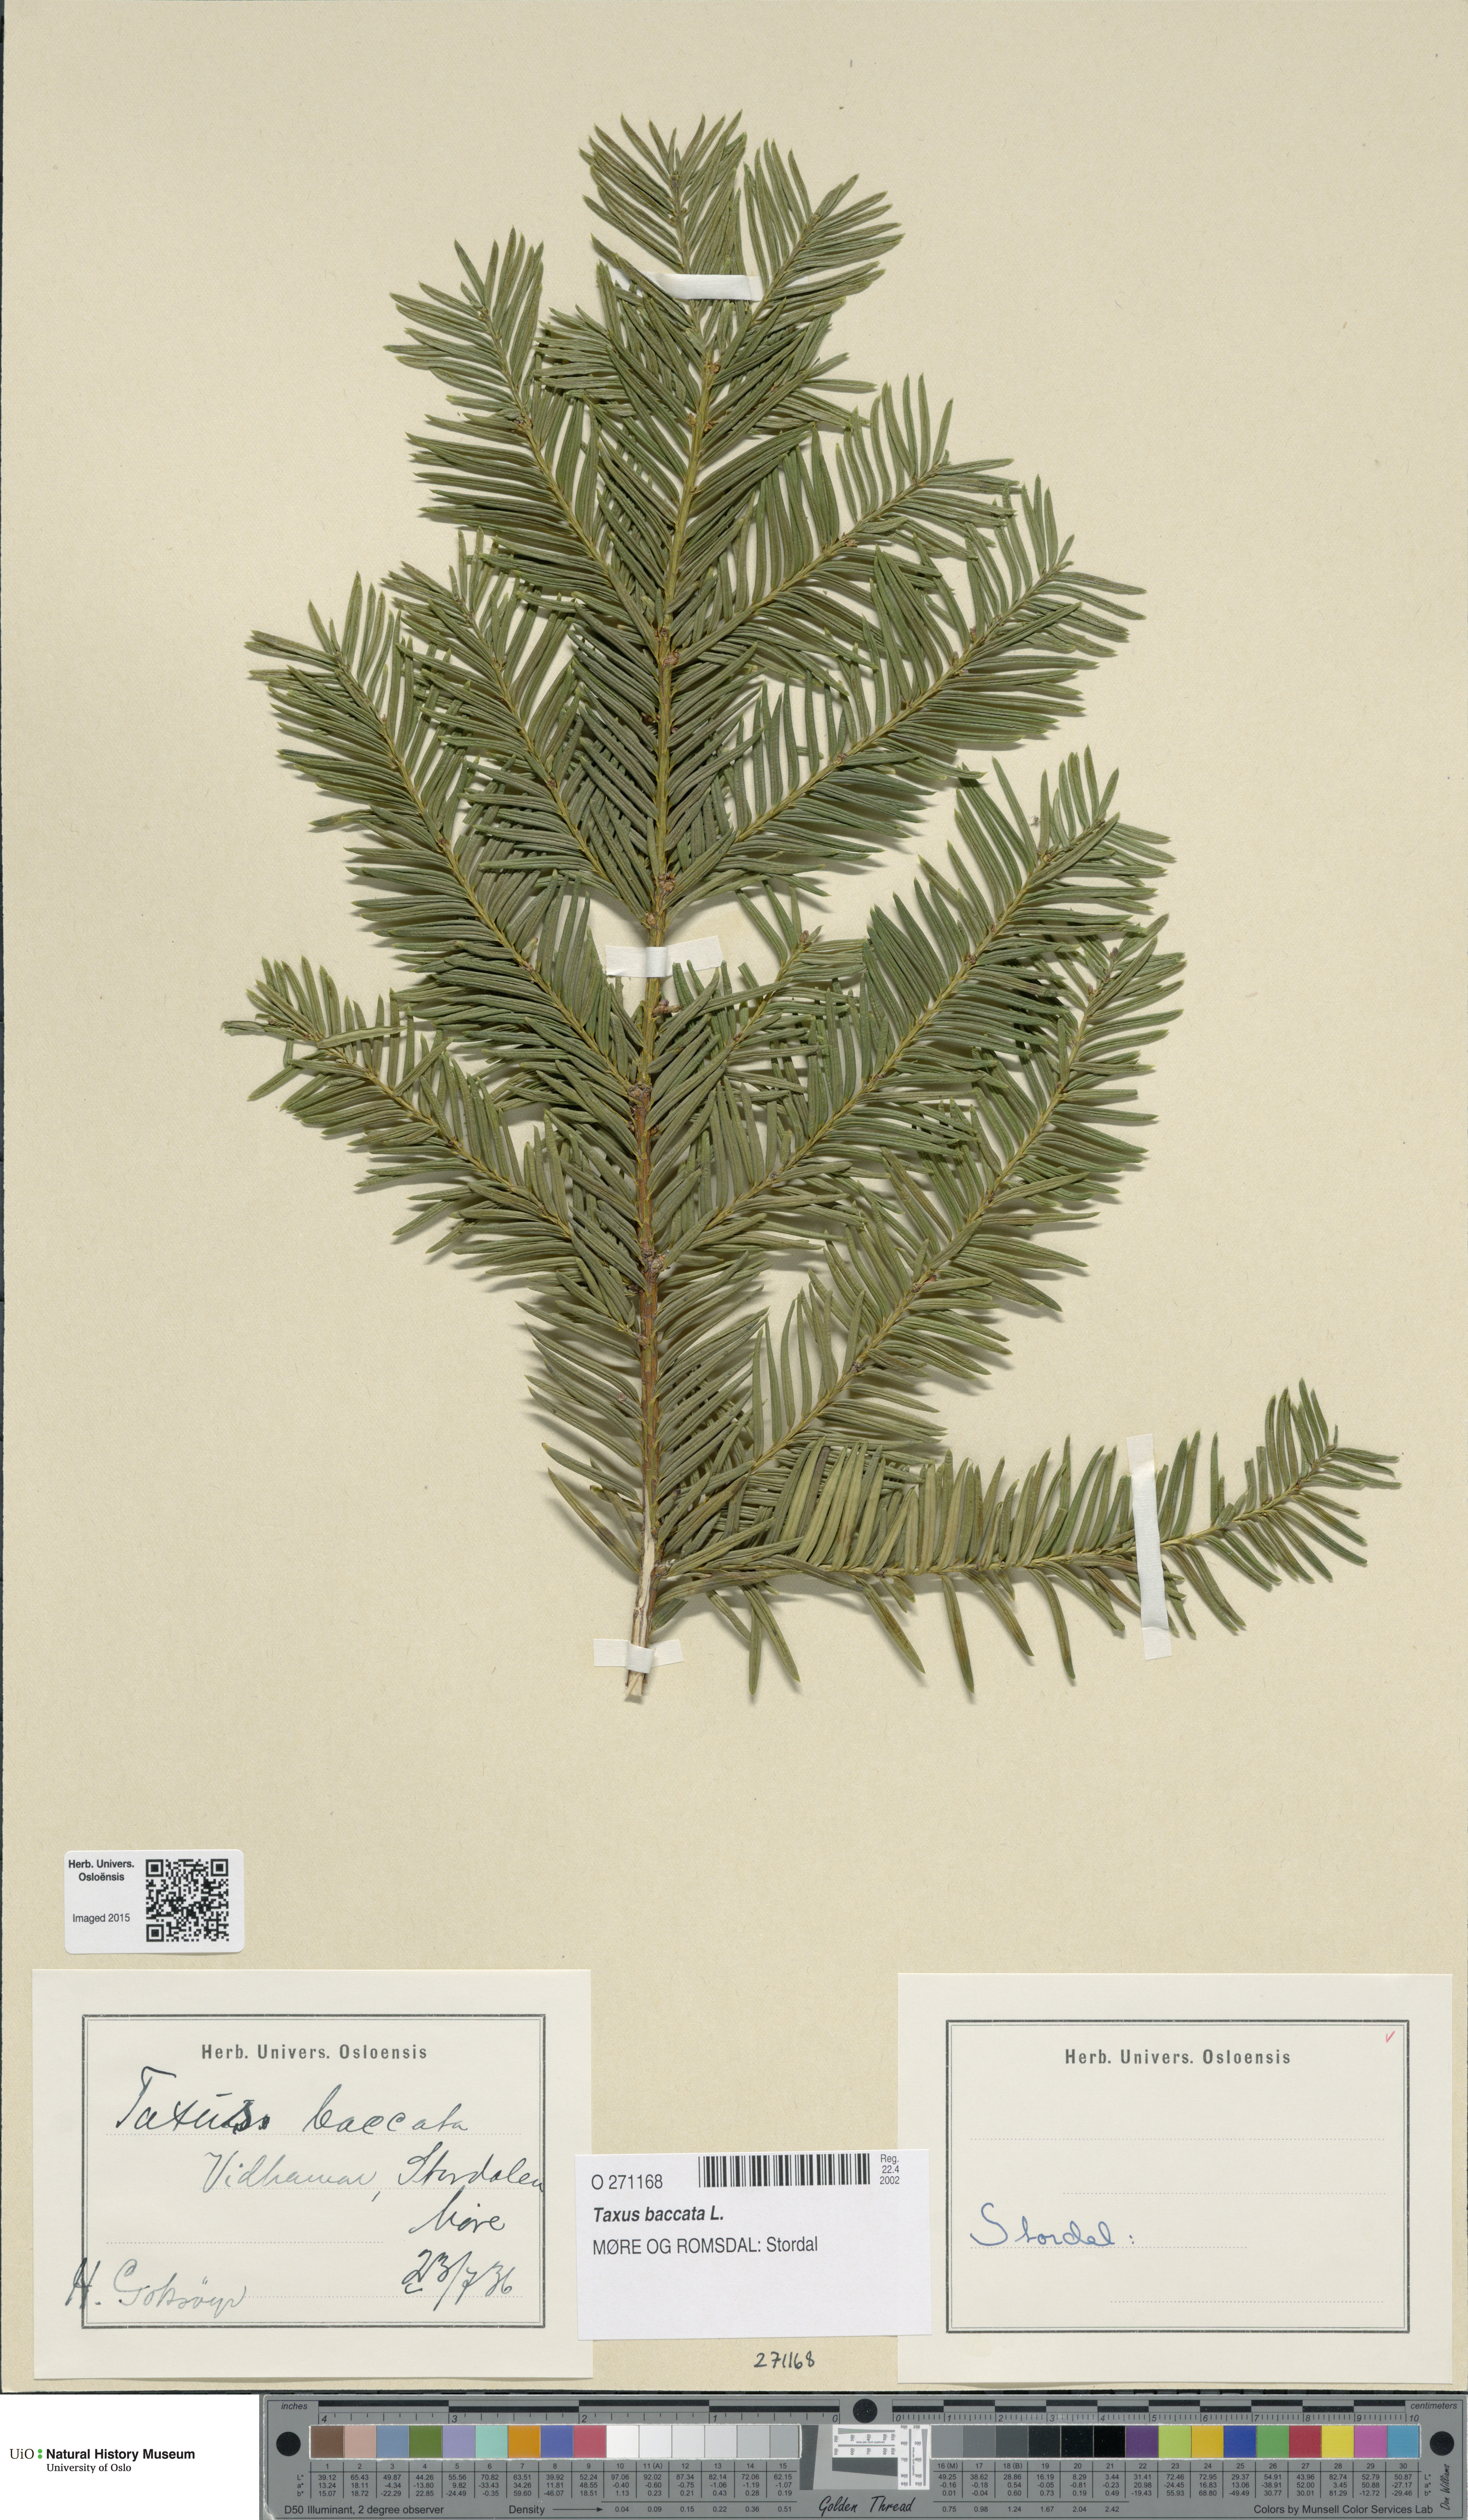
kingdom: Plantae
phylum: Tracheophyta
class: Pinopsida
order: Pinales
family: Taxaceae
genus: Taxus
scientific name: Taxus baccata
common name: Yew
